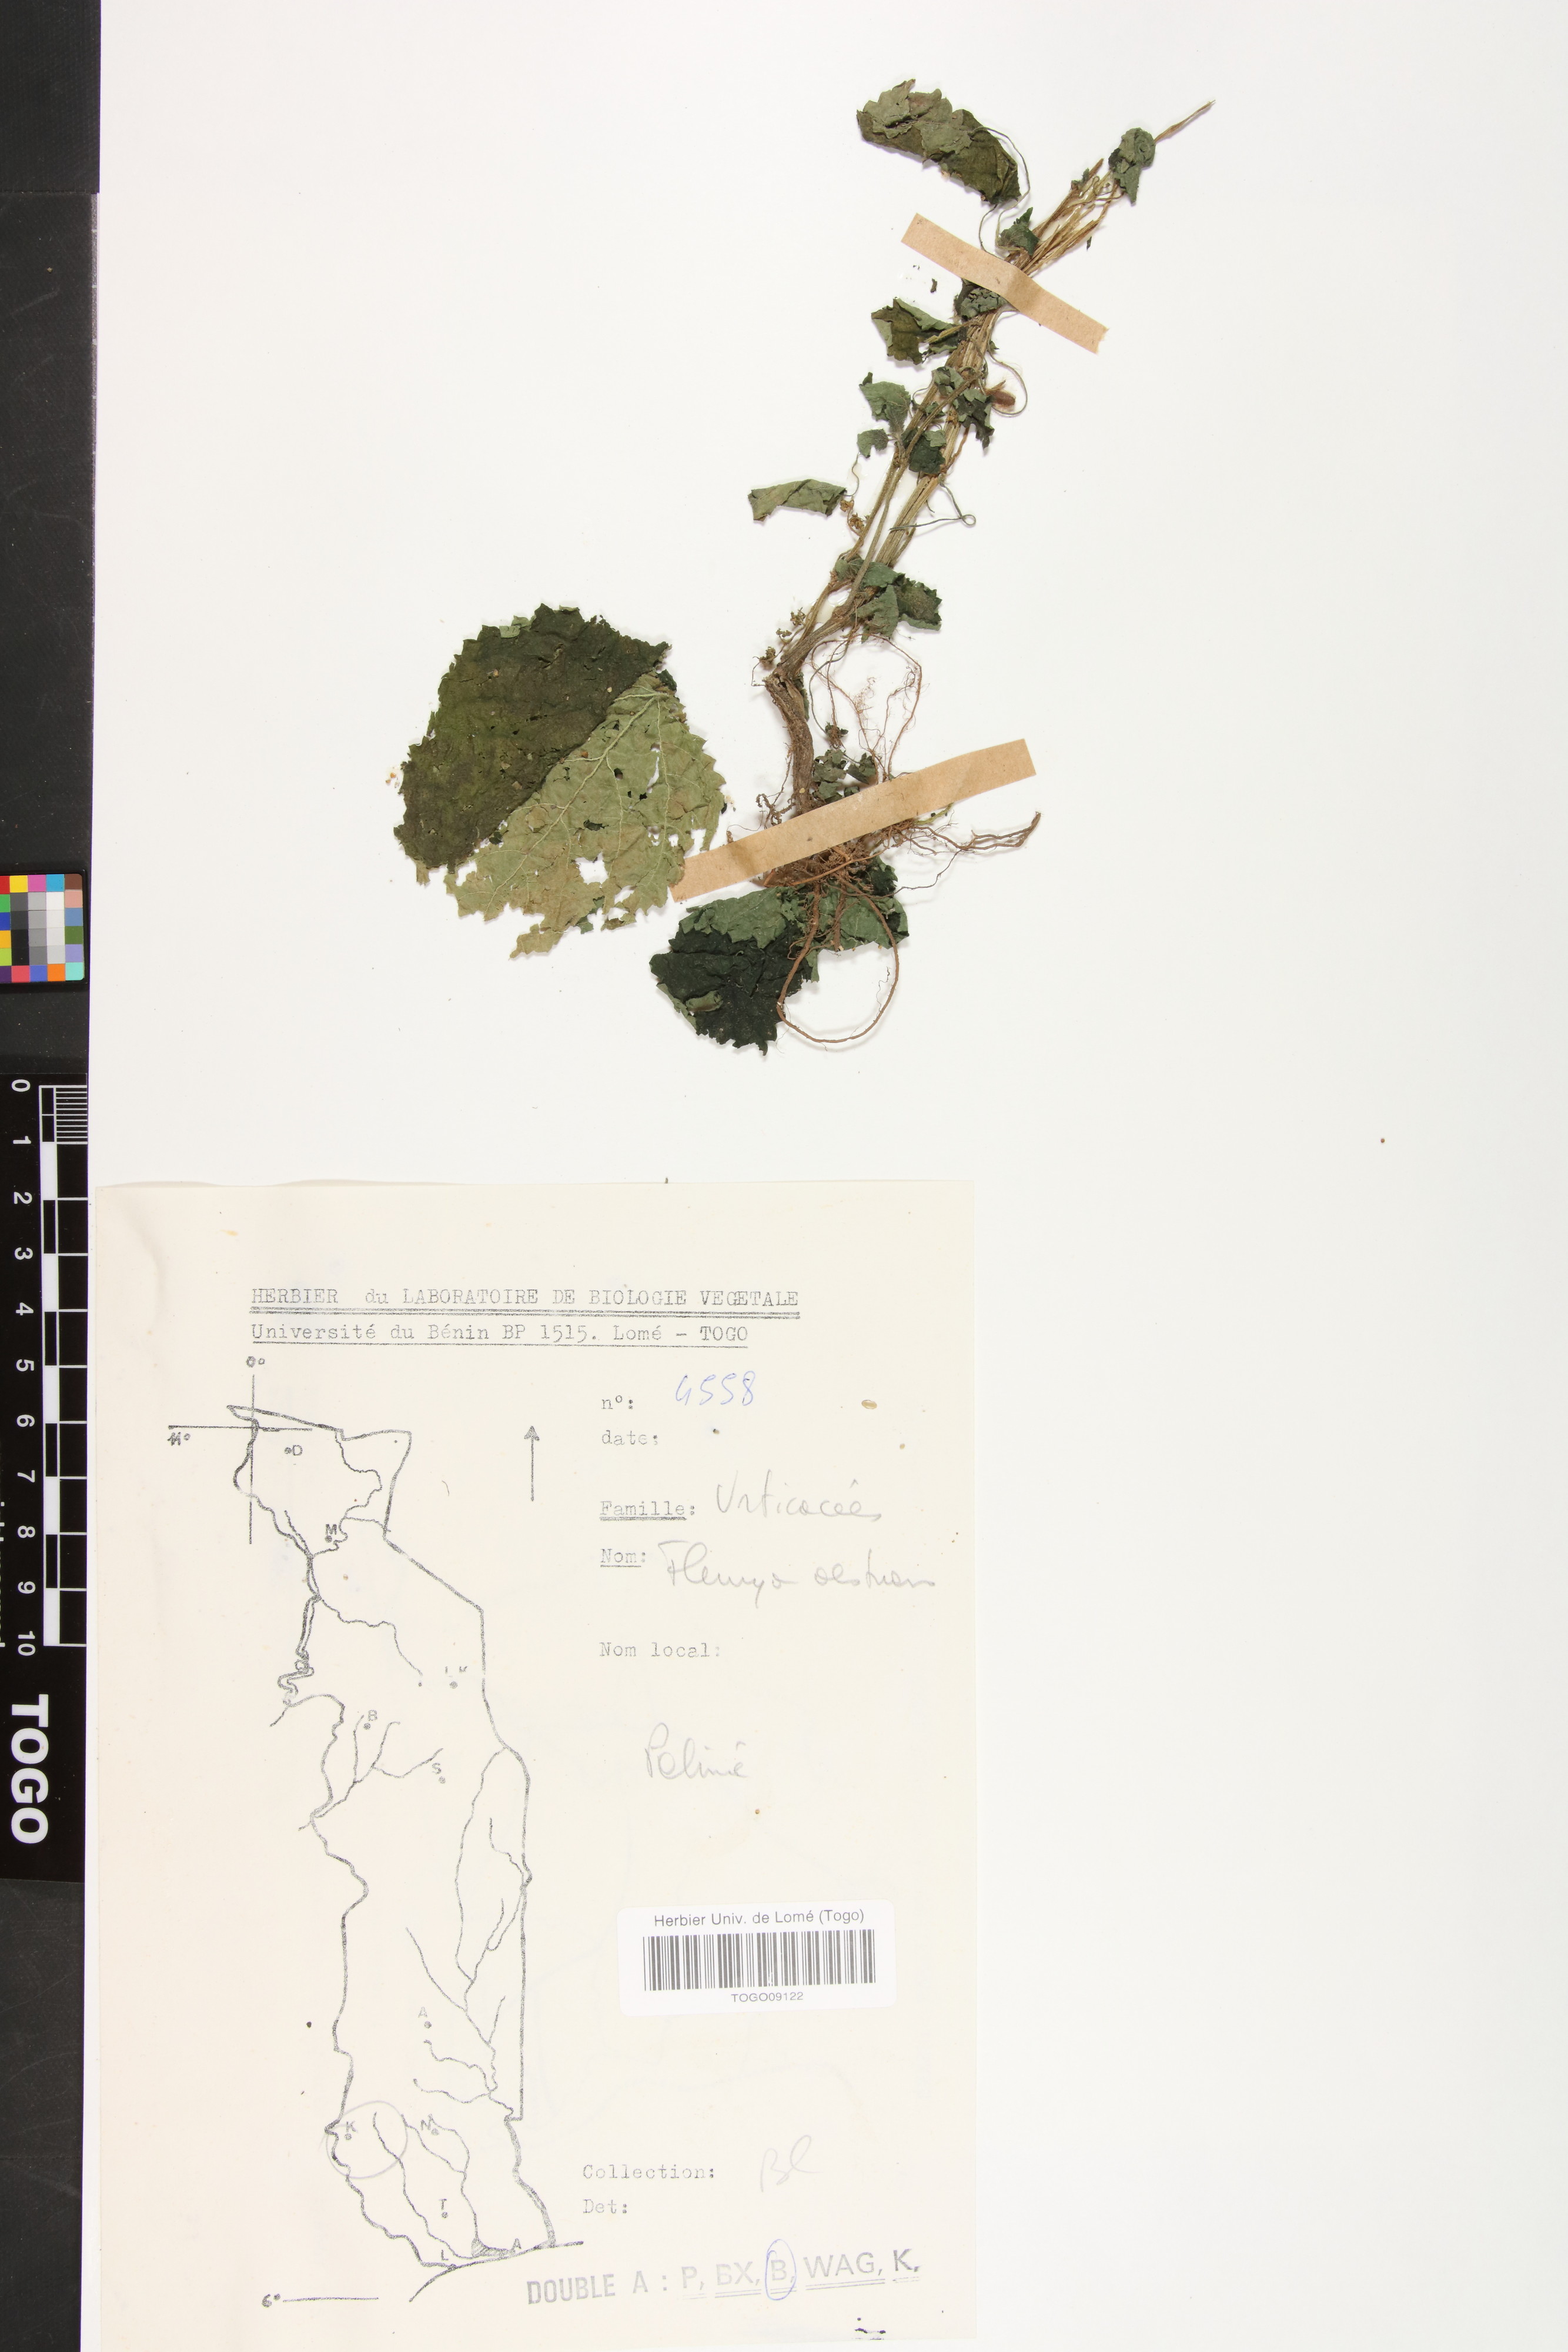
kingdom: Plantae
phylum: Tracheophyta
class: Magnoliopsida
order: Rosales
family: Urticaceae
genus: Laportea
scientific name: Laportea aestuans
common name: West indian woodnettle
